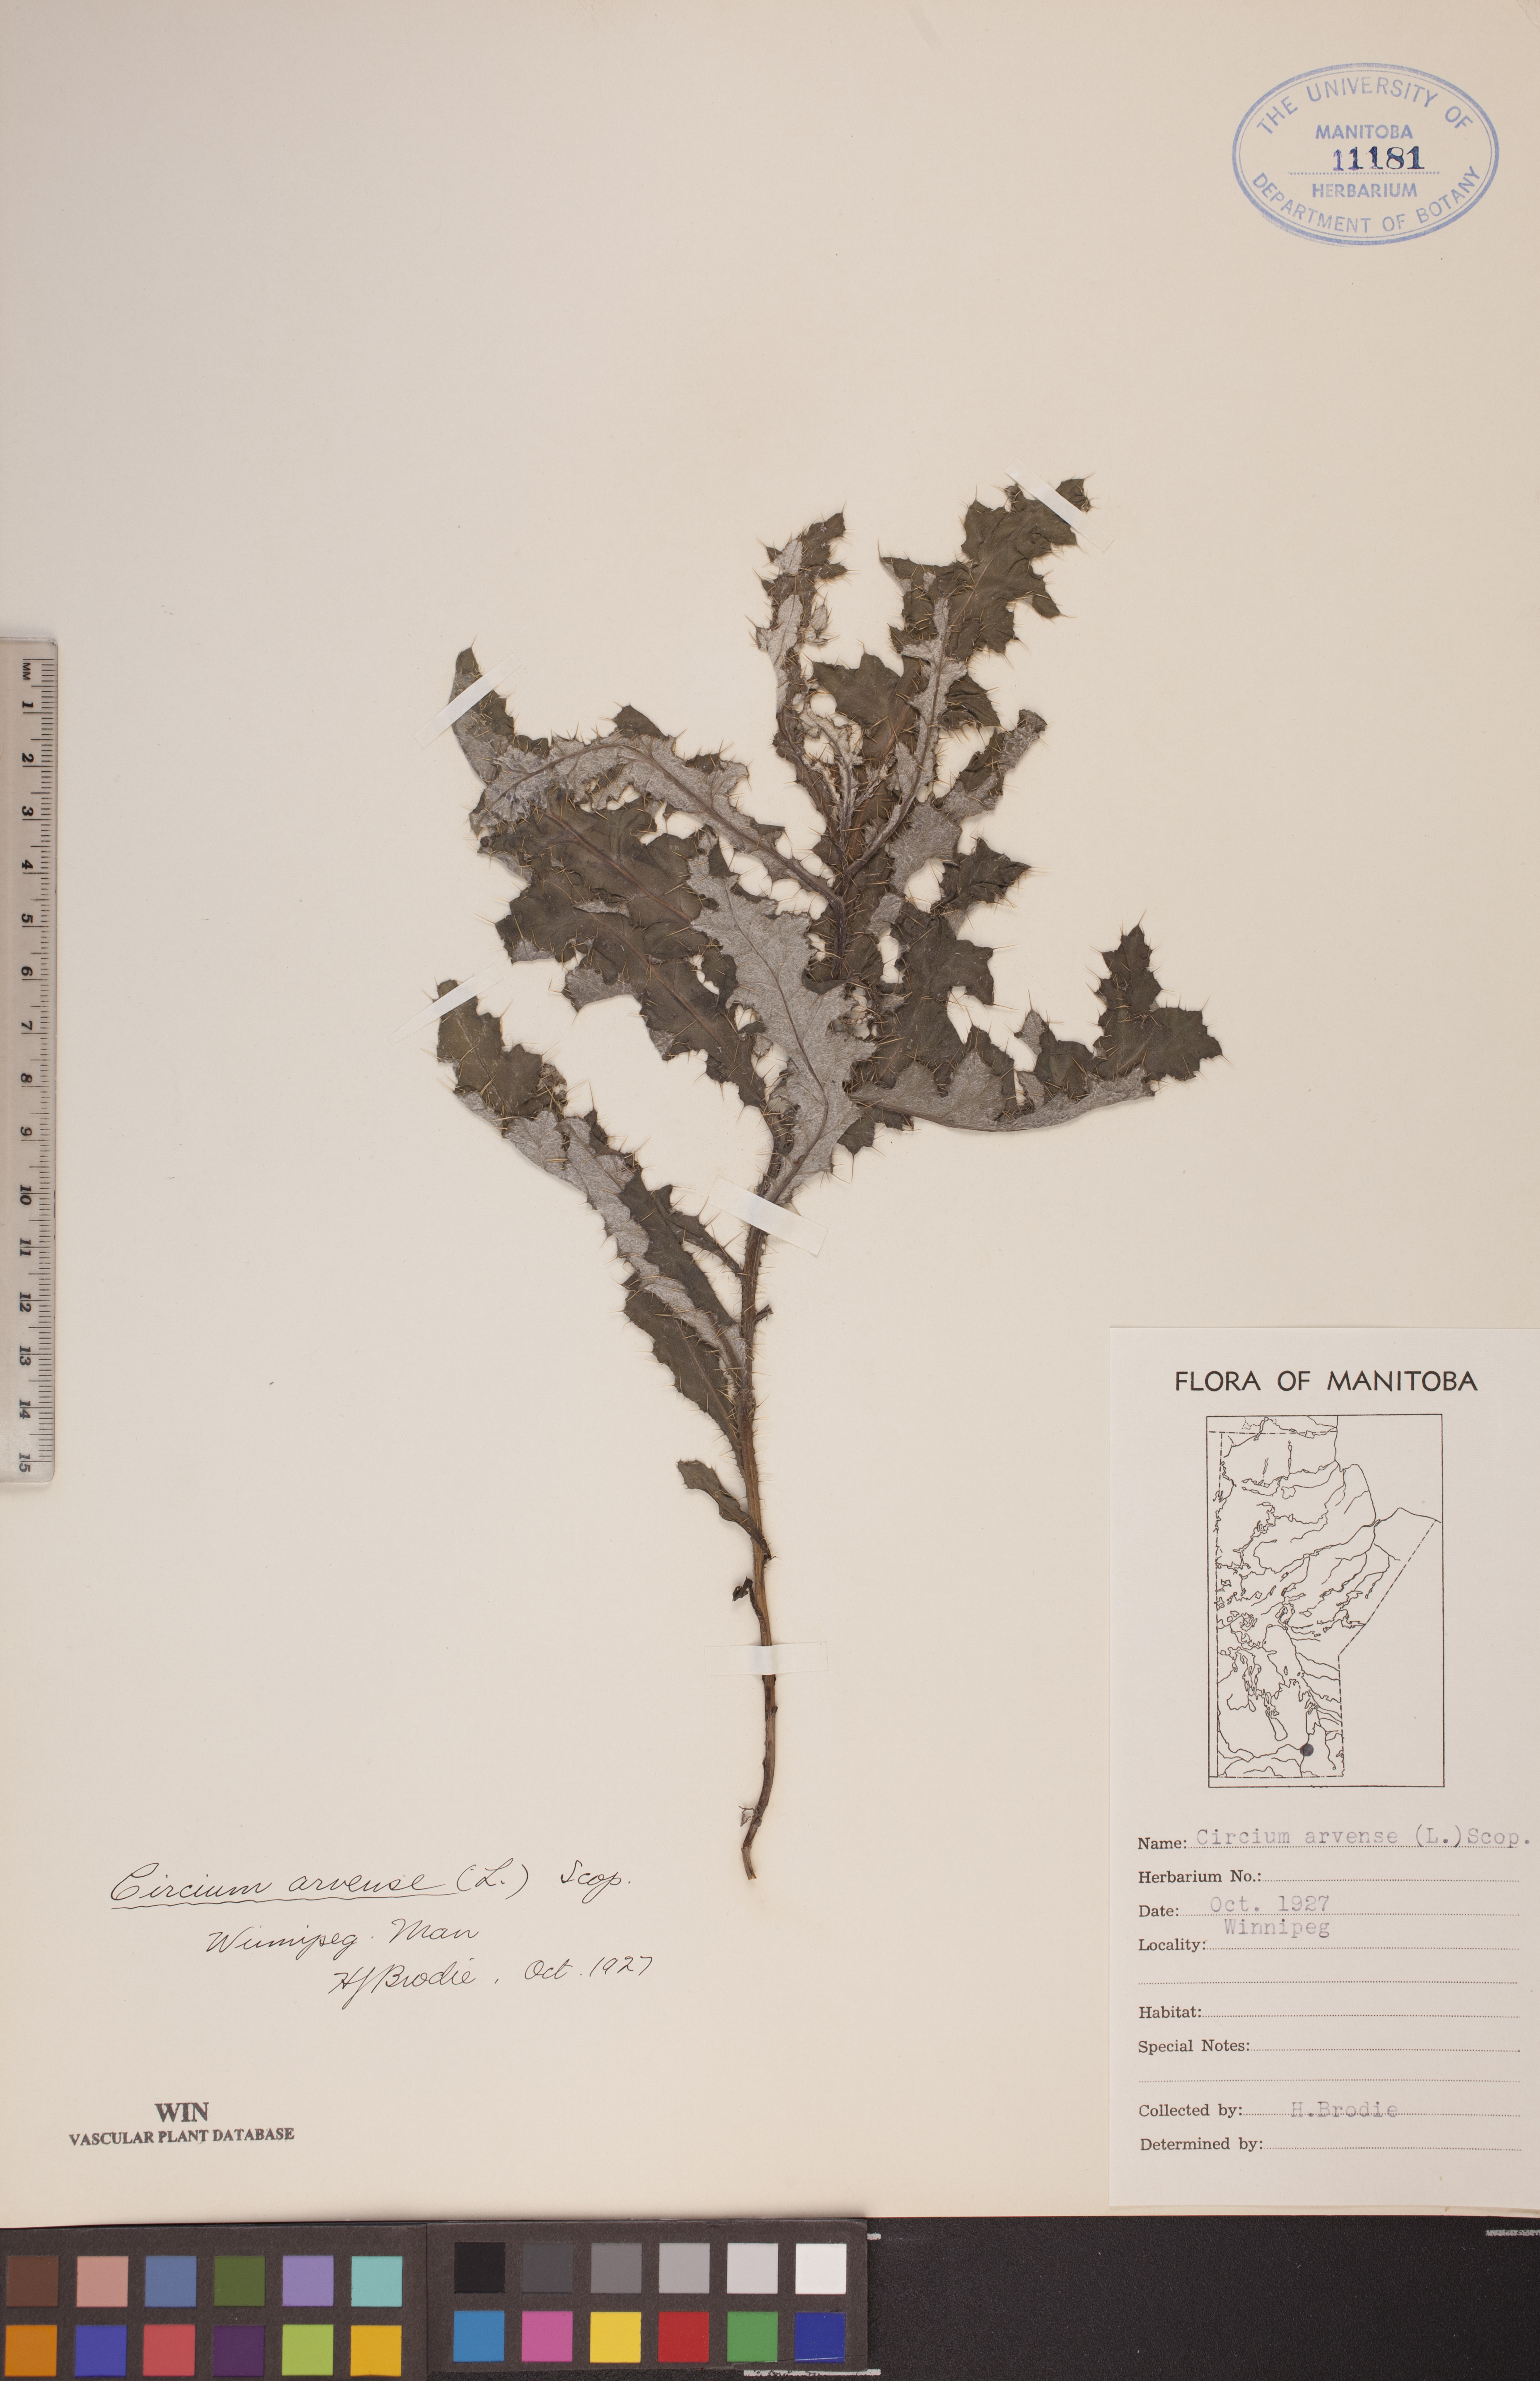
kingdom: Plantae
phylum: Tracheophyta
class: Magnoliopsida
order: Asterales
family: Asteraceae
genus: Cirsium
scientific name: Cirsium arvense
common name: Creeping thistle
